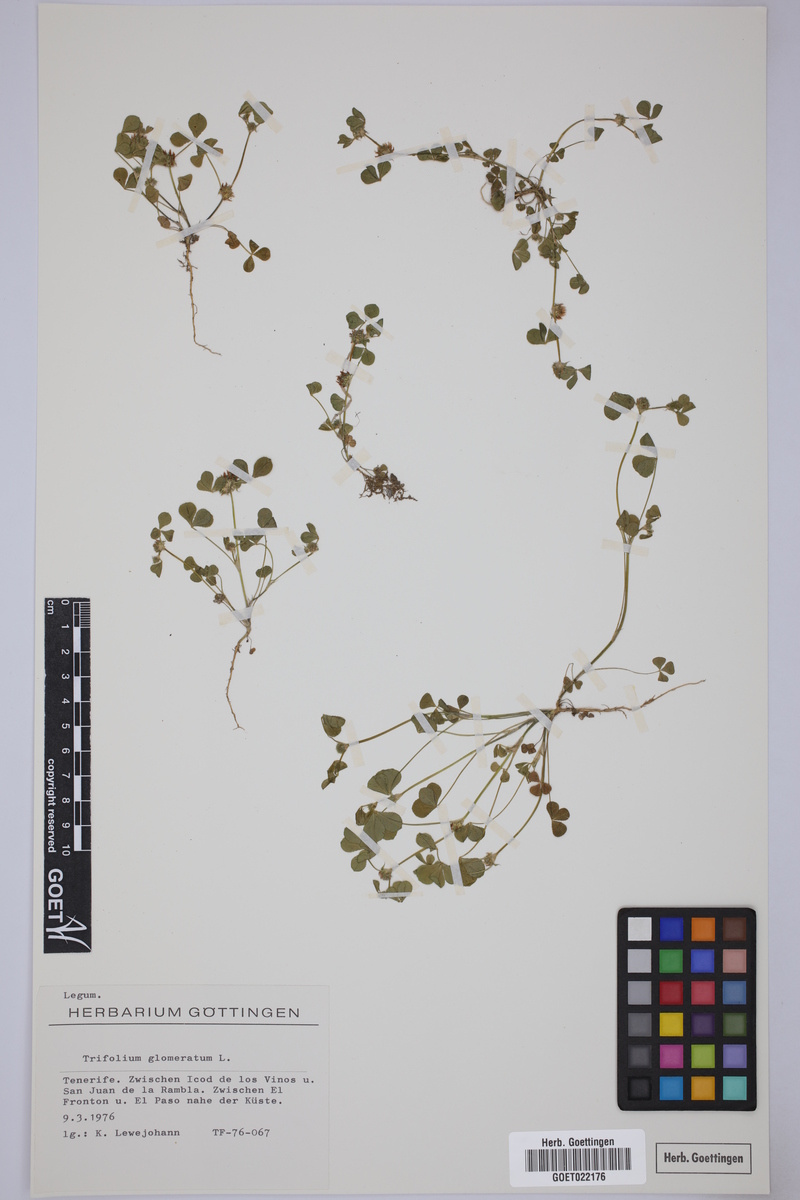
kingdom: Plantae
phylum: Tracheophyta
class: Magnoliopsida
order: Fabales
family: Fabaceae
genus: Trifolium
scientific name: Trifolium glomeratum
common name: Clustered clover
